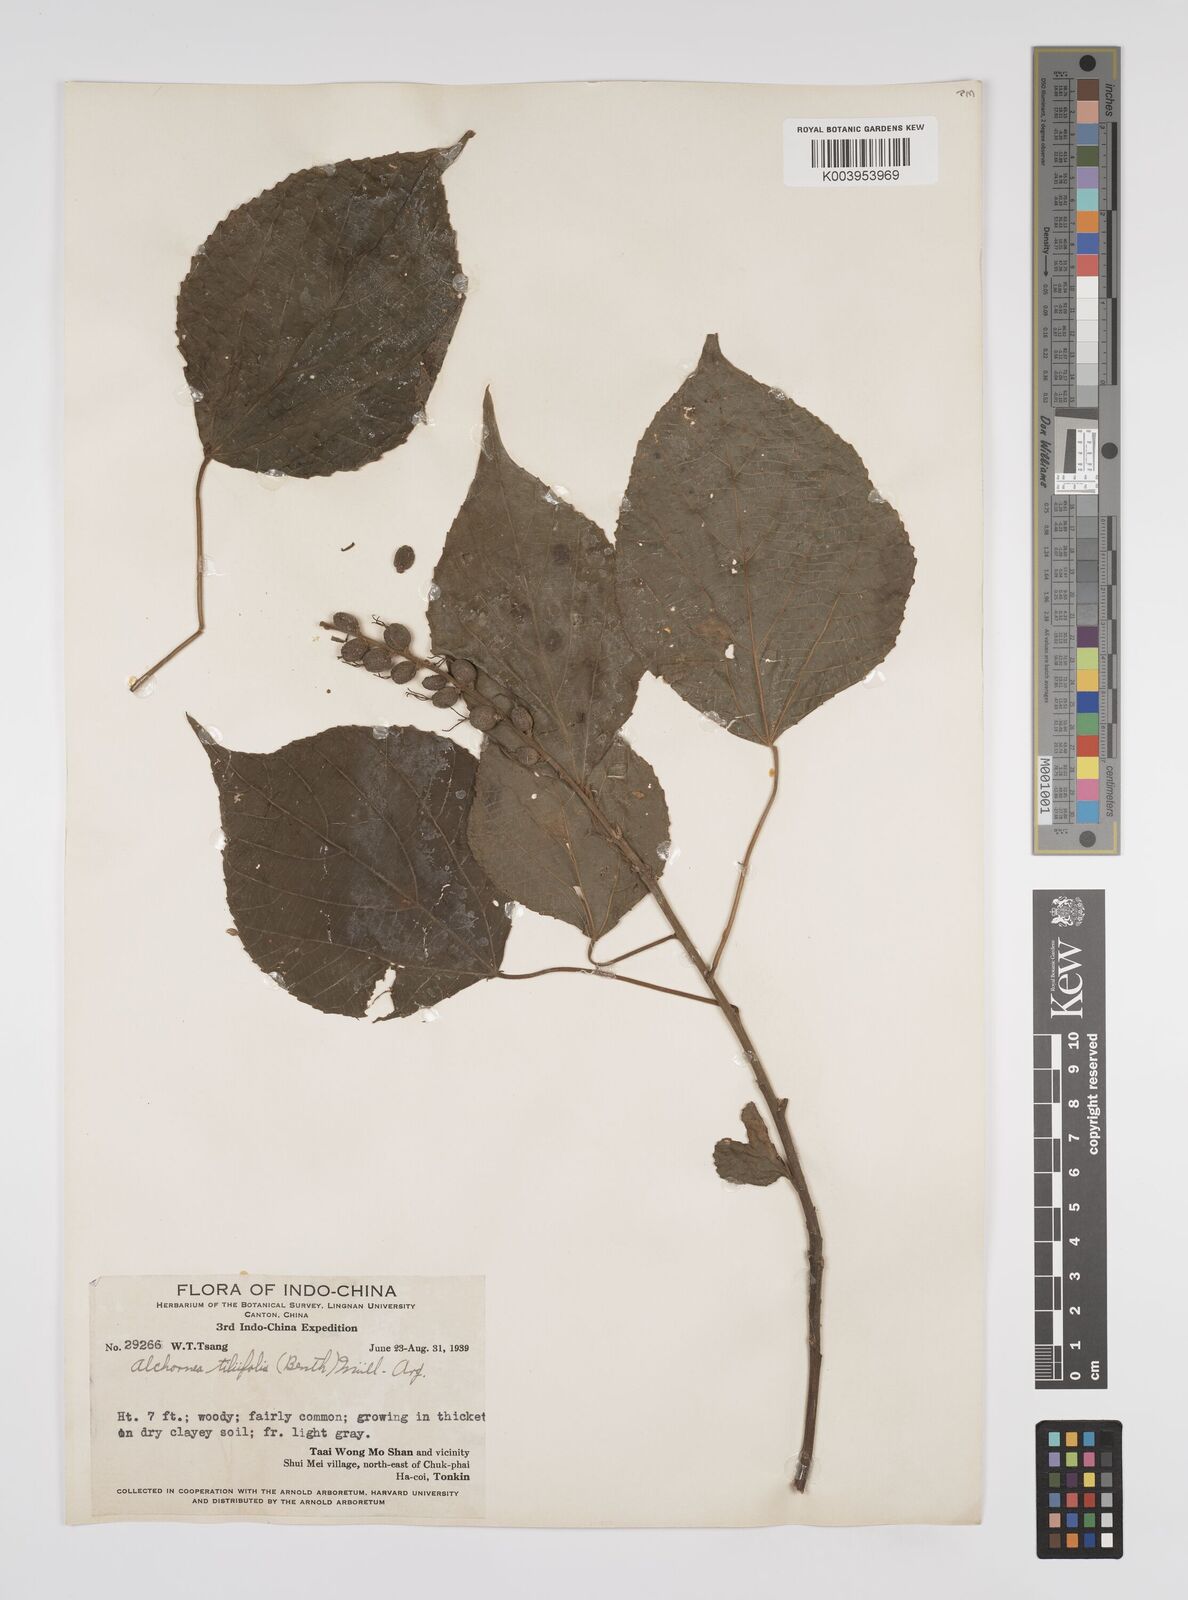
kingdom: Plantae
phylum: Tracheophyta
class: Magnoliopsida
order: Malpighiales
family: Euphorbiaceae
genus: Alchornea
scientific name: Alchornea tiliifolia
